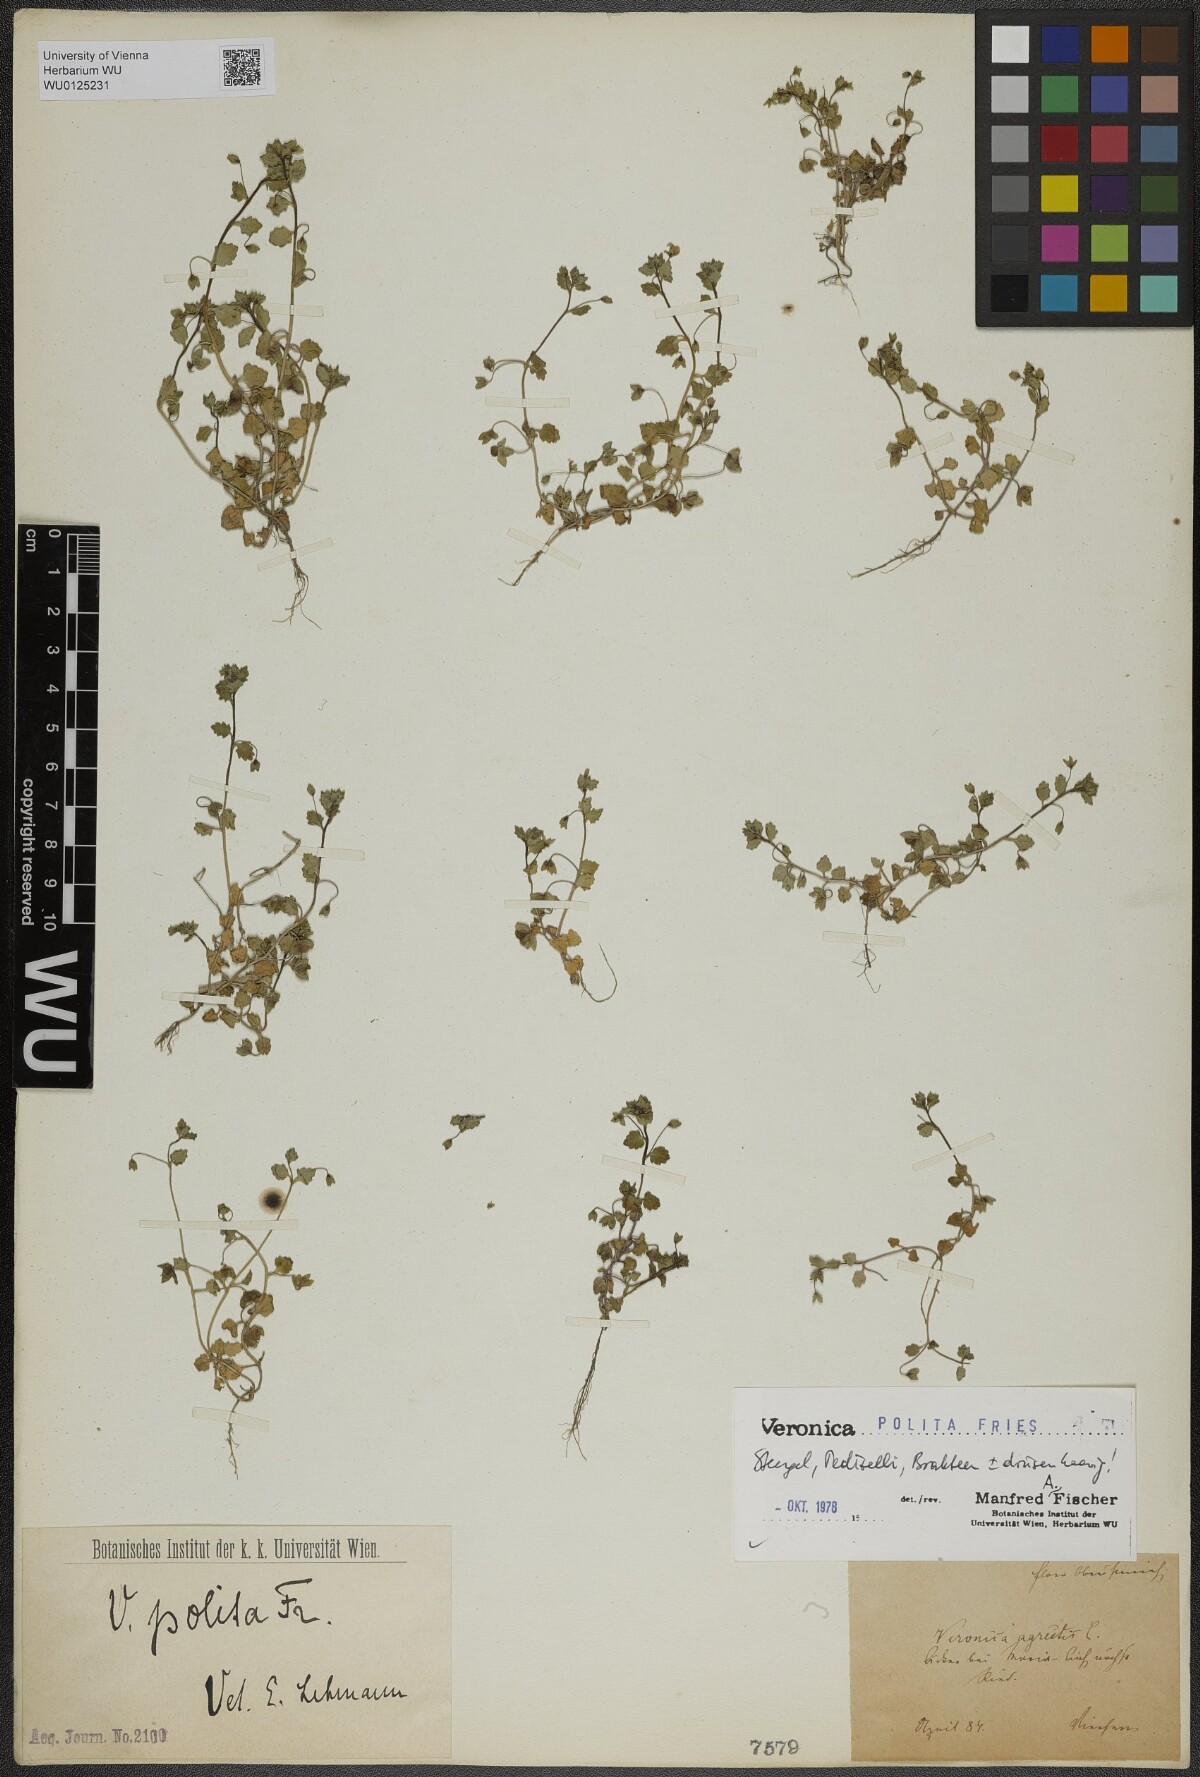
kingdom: Plantae
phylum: Tracheophyta
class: Magnoliopsida
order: Lamiales
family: Plantaginaceae
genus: Veronica
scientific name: Veronica polita
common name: Grey field-speedwell
